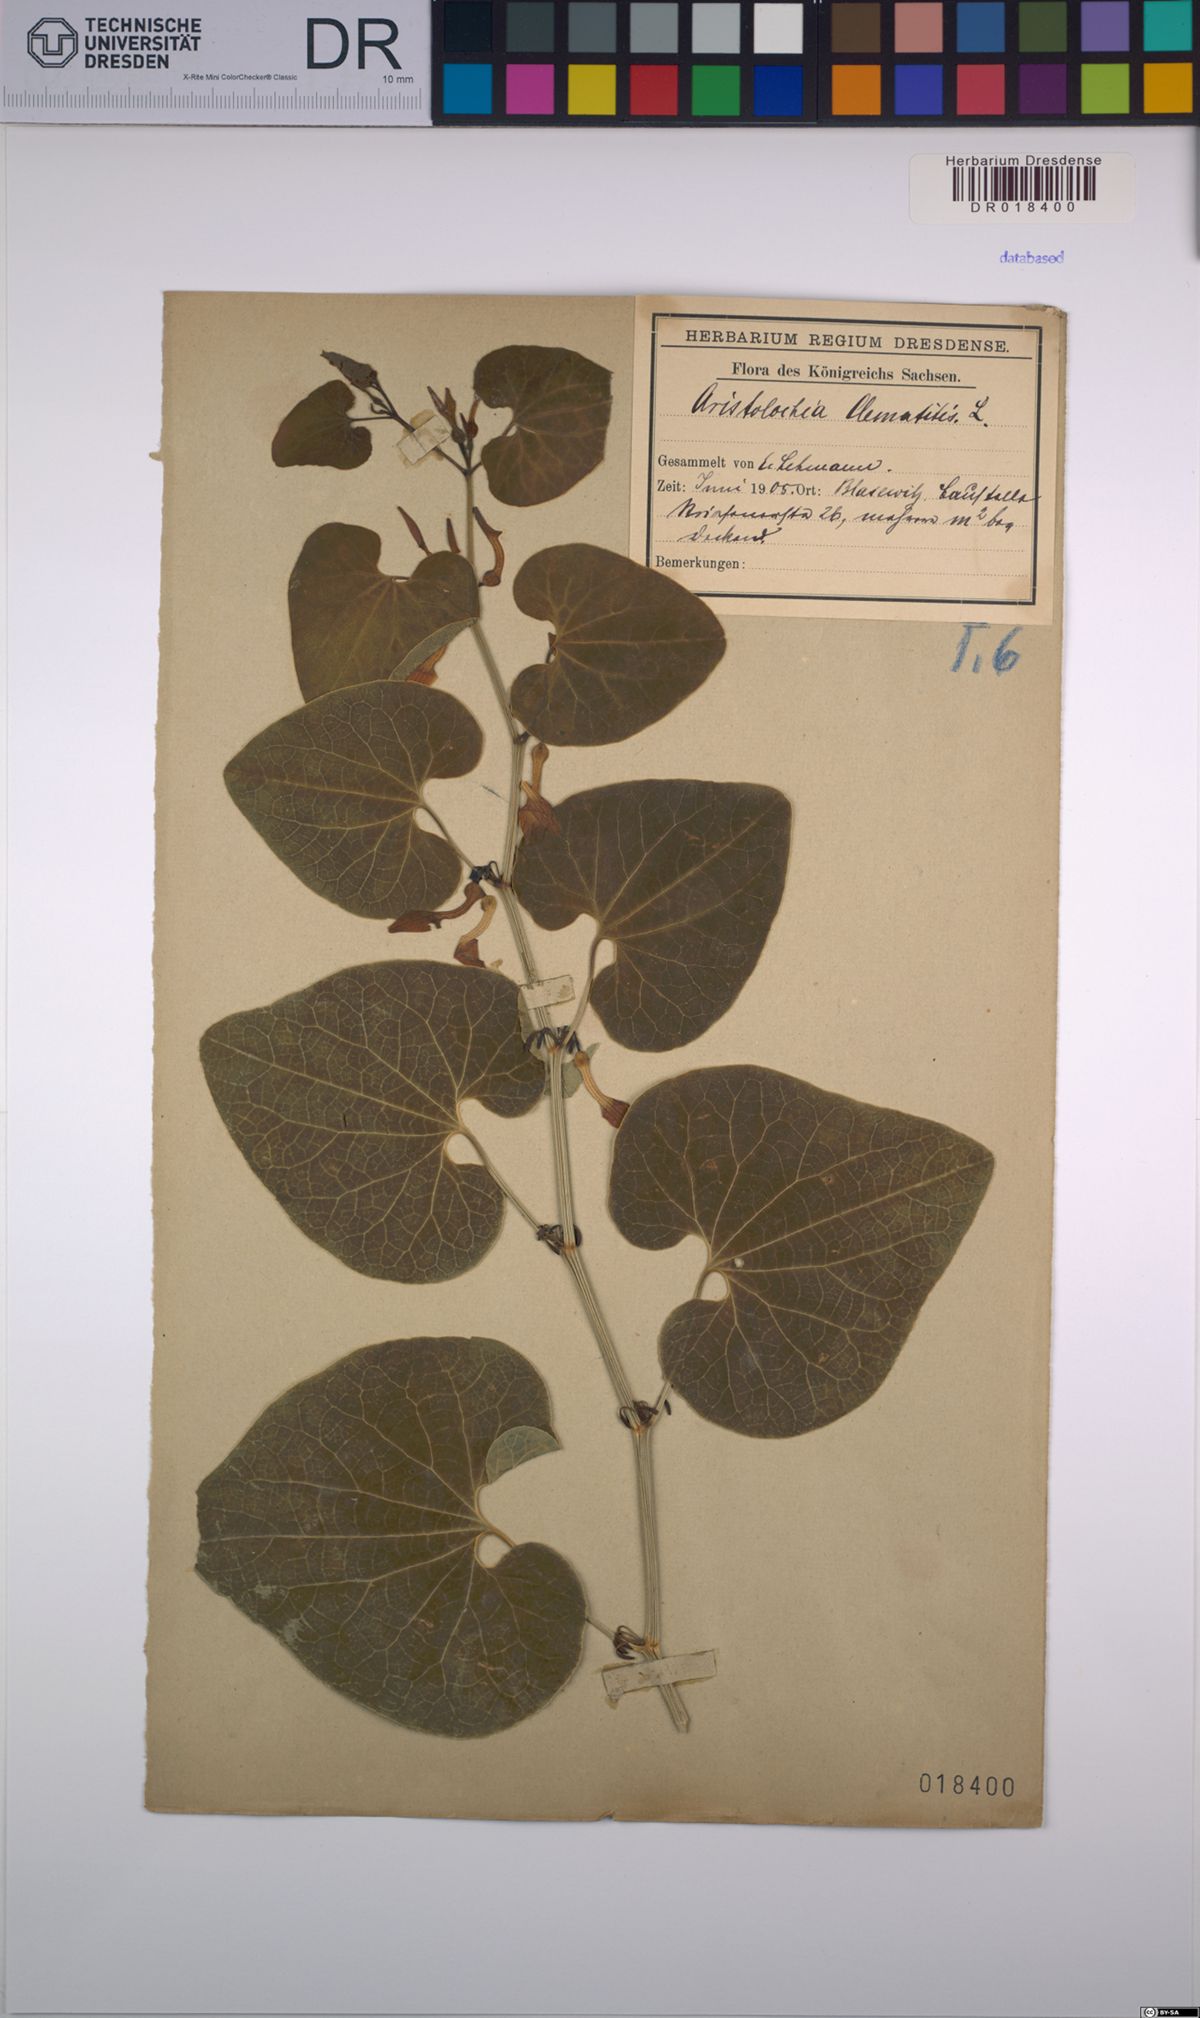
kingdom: Plantae
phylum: Tracheophyta
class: Magnoliopsida
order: Piperales
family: Aristolochiaceae
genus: Aristolochia
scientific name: Aristolochia clematitis
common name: Birthwort
